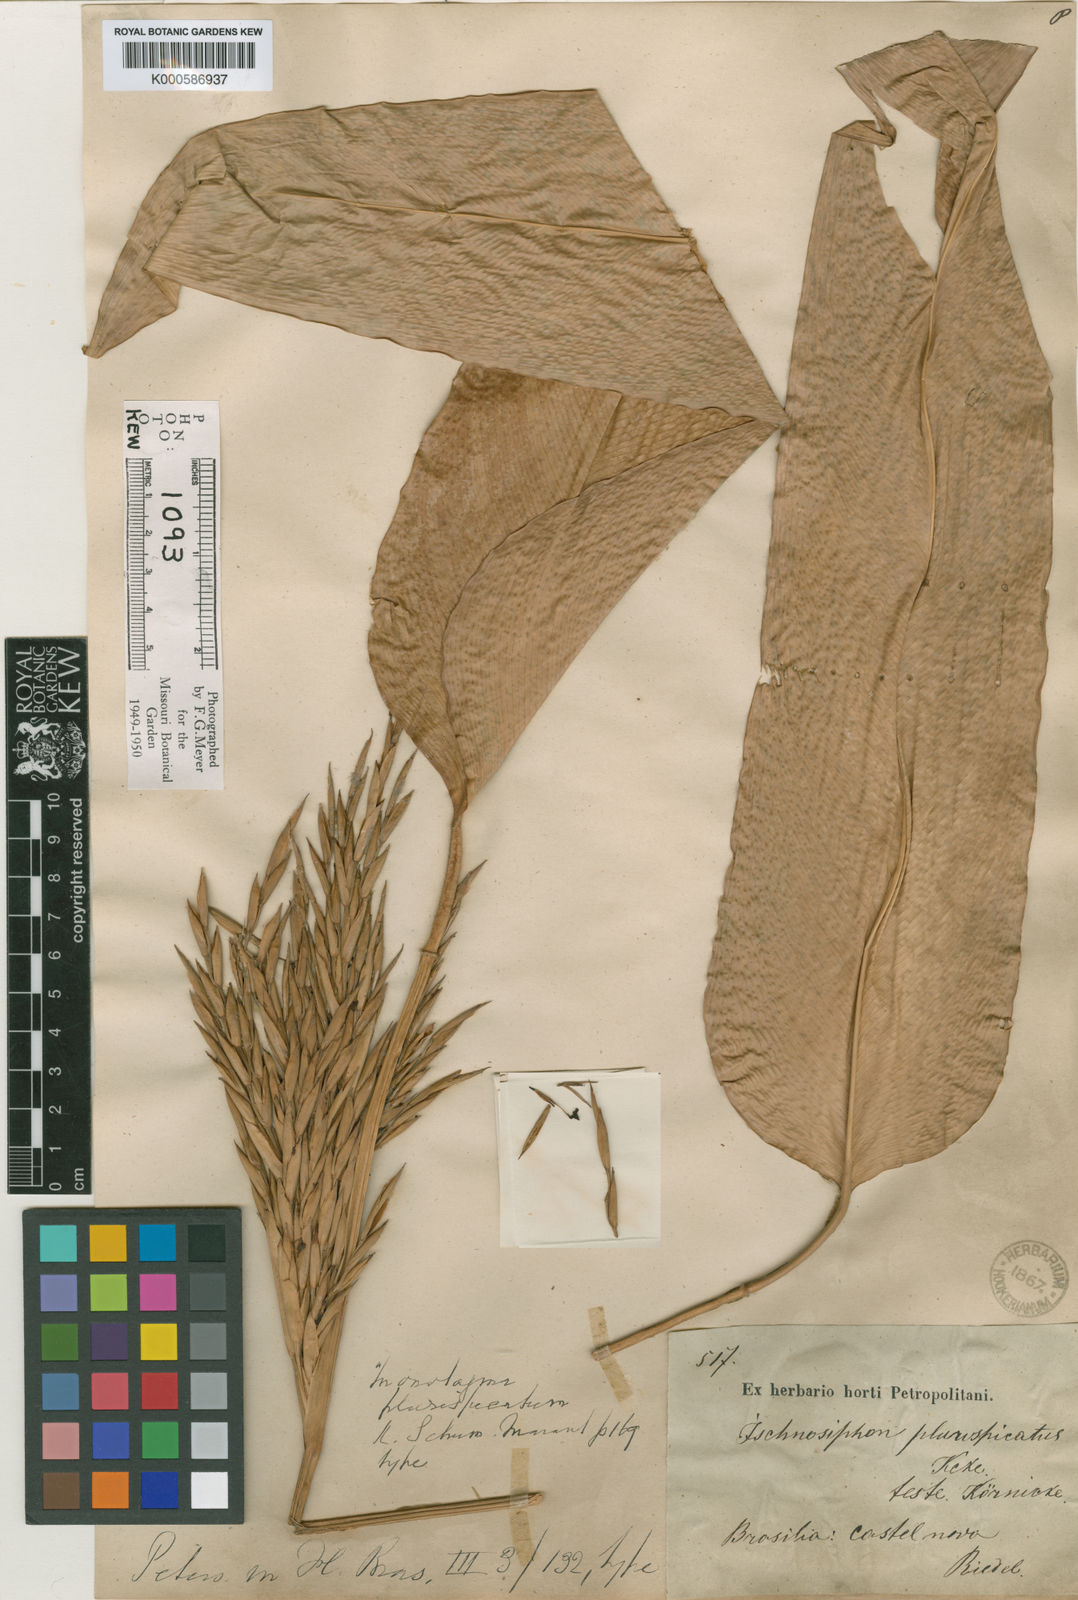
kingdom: Plantae
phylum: Tracheophyta
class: Liliopsida
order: Zingiberales
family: Marantaceae
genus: Monotagma
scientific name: Monotagma
